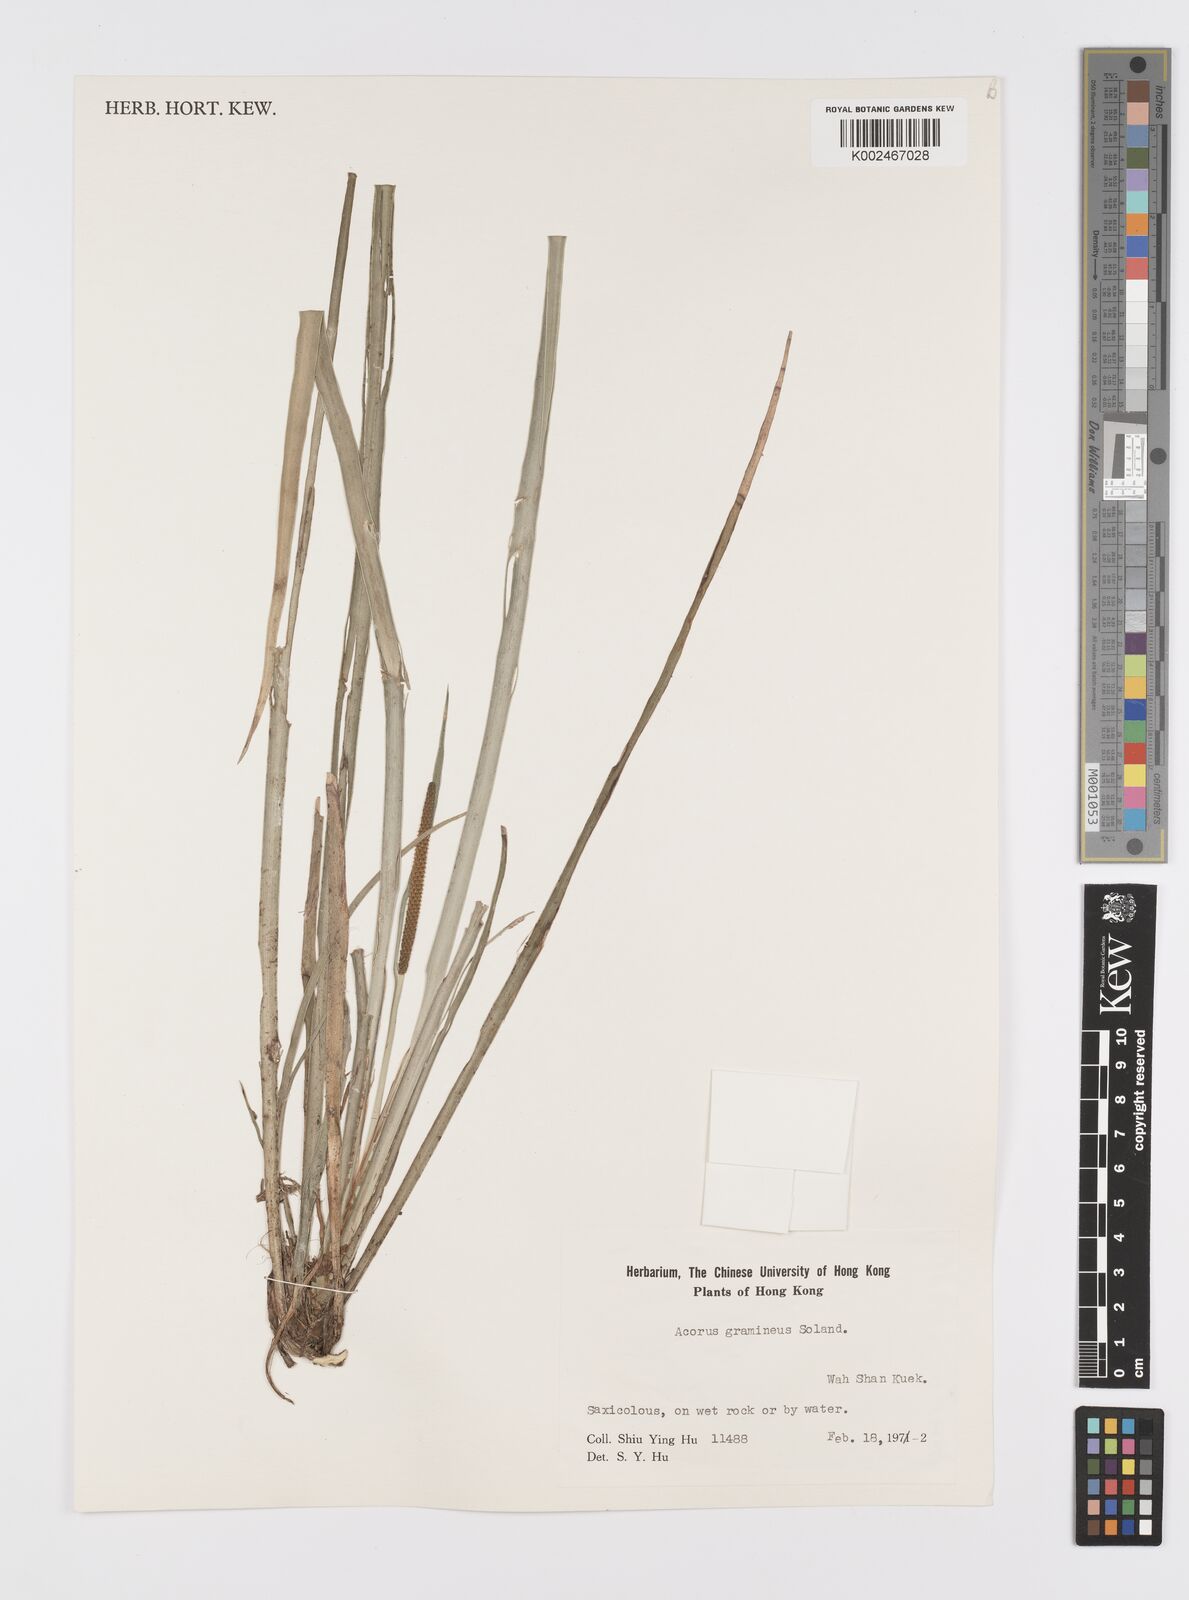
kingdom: Plantae
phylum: Tracheophyta
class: Liliopsida
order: Acorales
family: Acoraceae
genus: Acorus
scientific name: Acorus gramineus
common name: Slender sweet-flag
